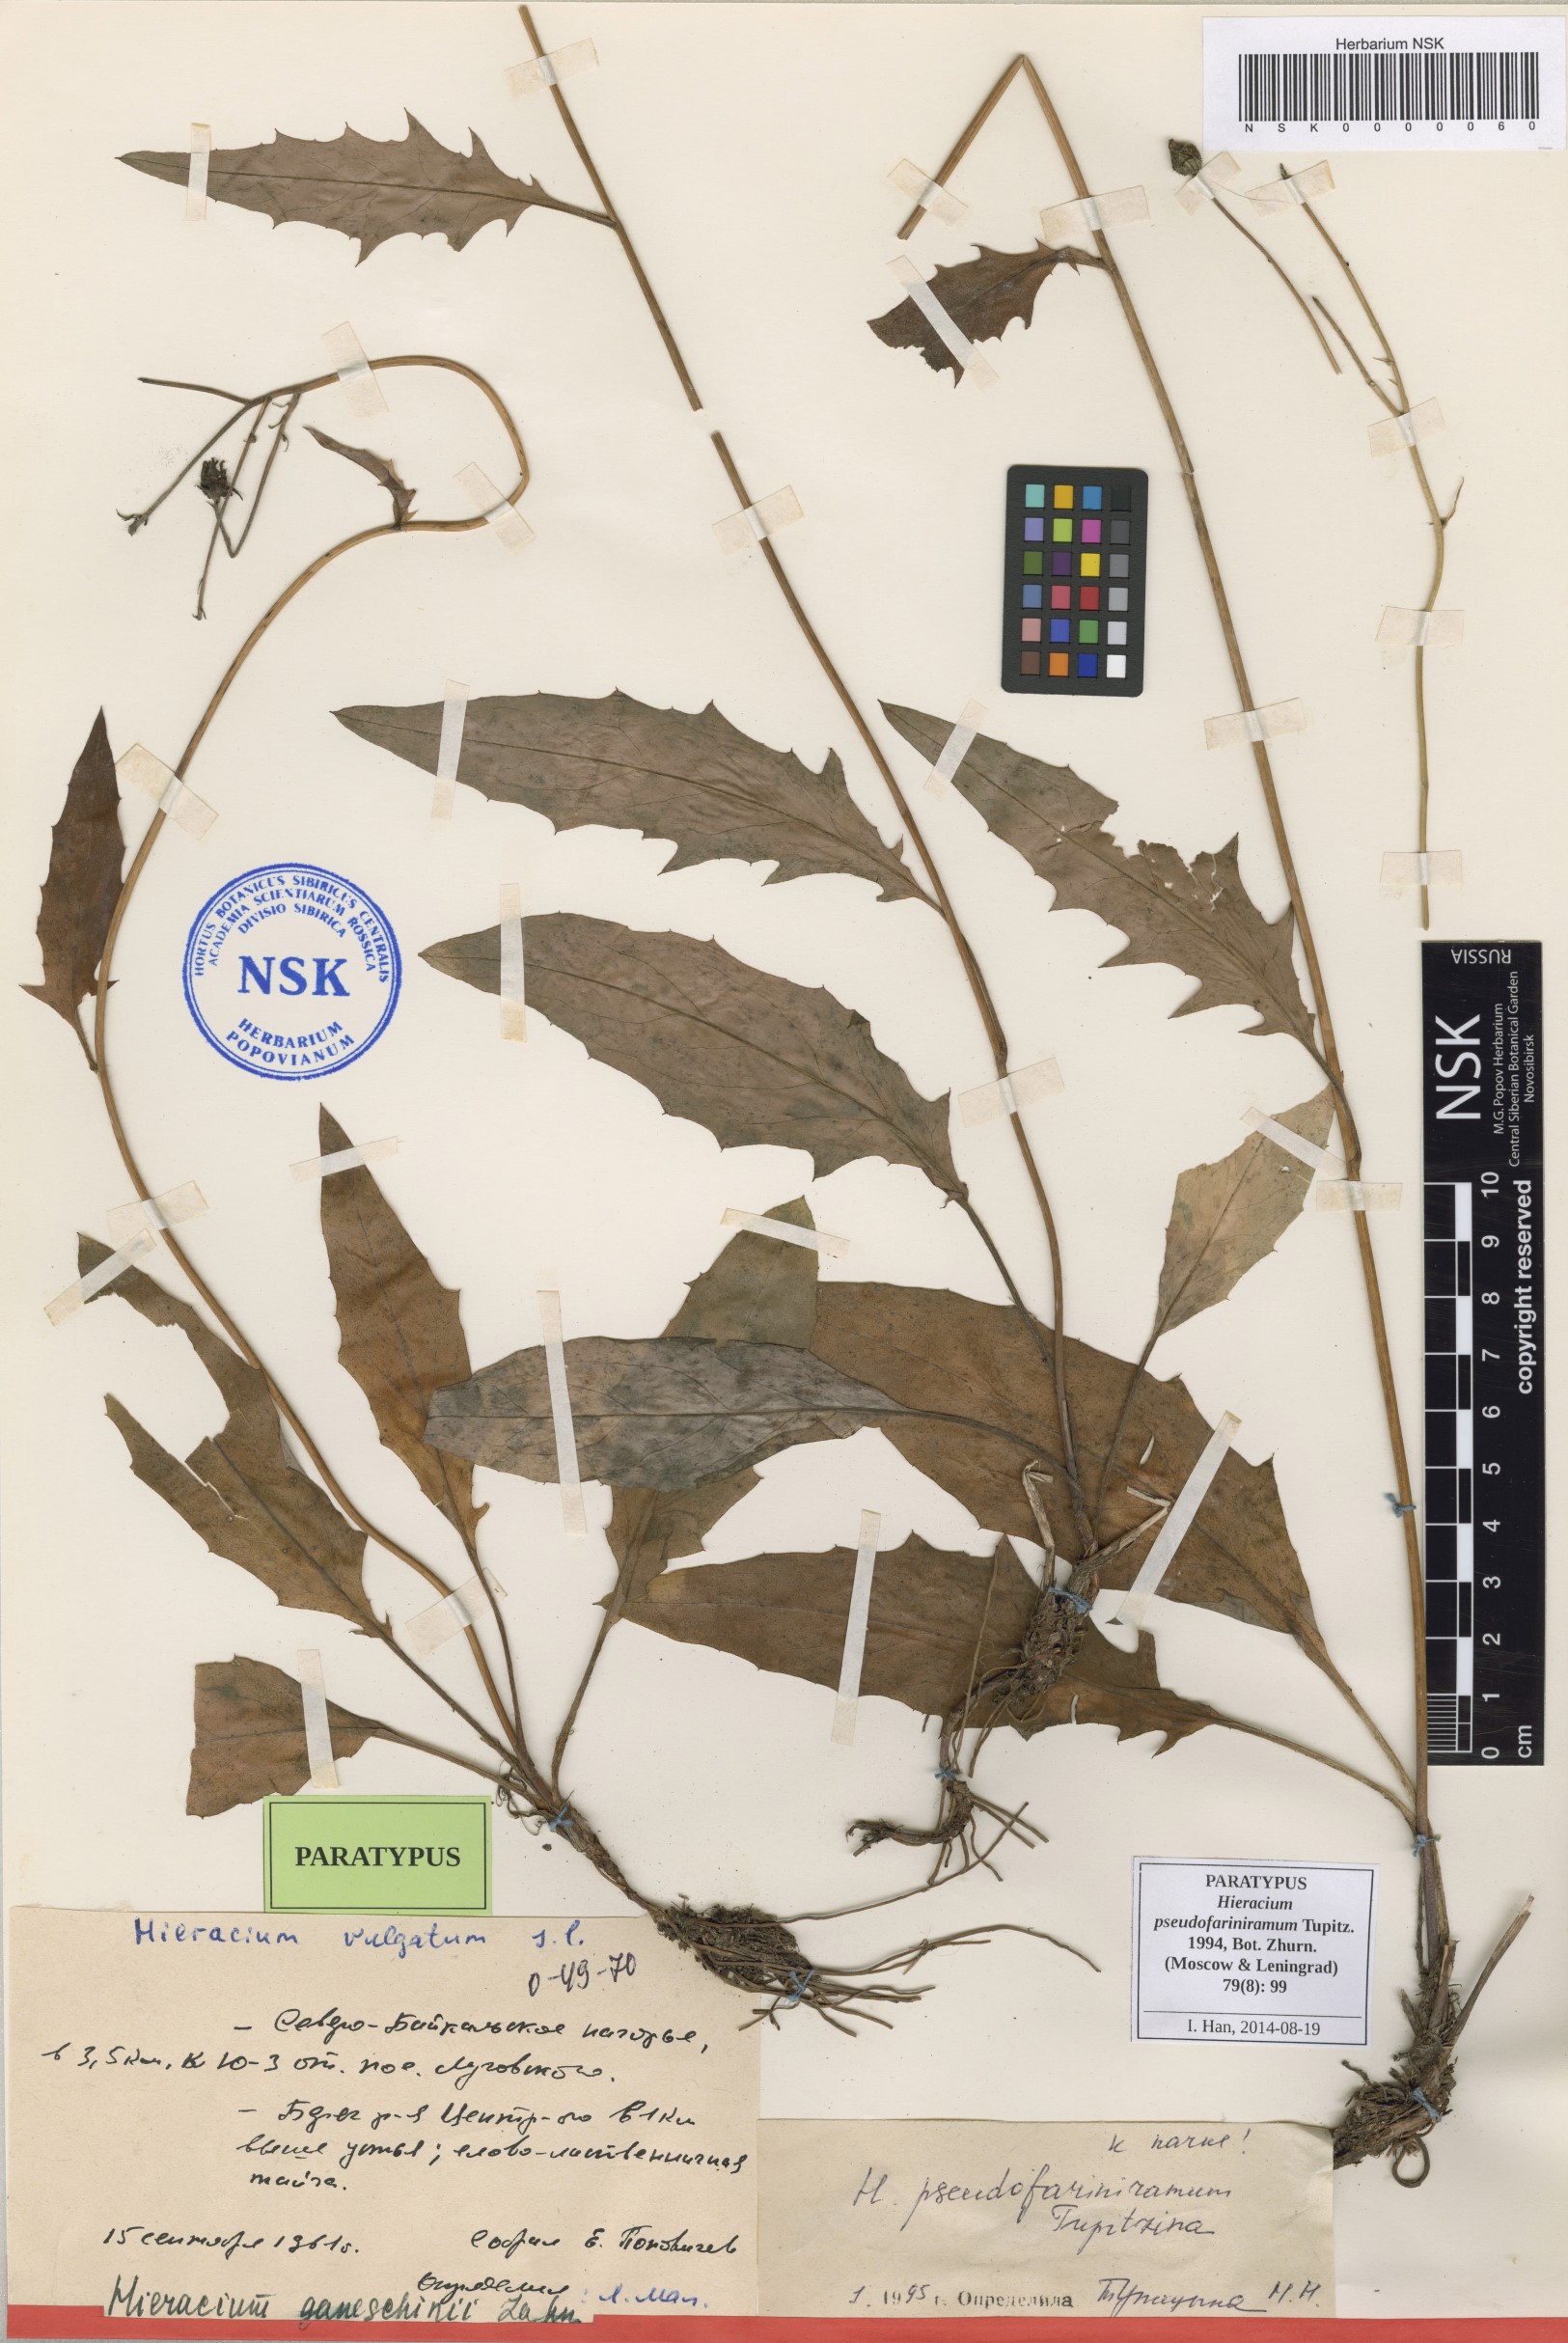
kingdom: Plantae
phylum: Tracheophyta
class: Magnoliopsida
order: Asterales
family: Asteraceae
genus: Hieracium
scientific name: Hieracium pseudofariniramum
